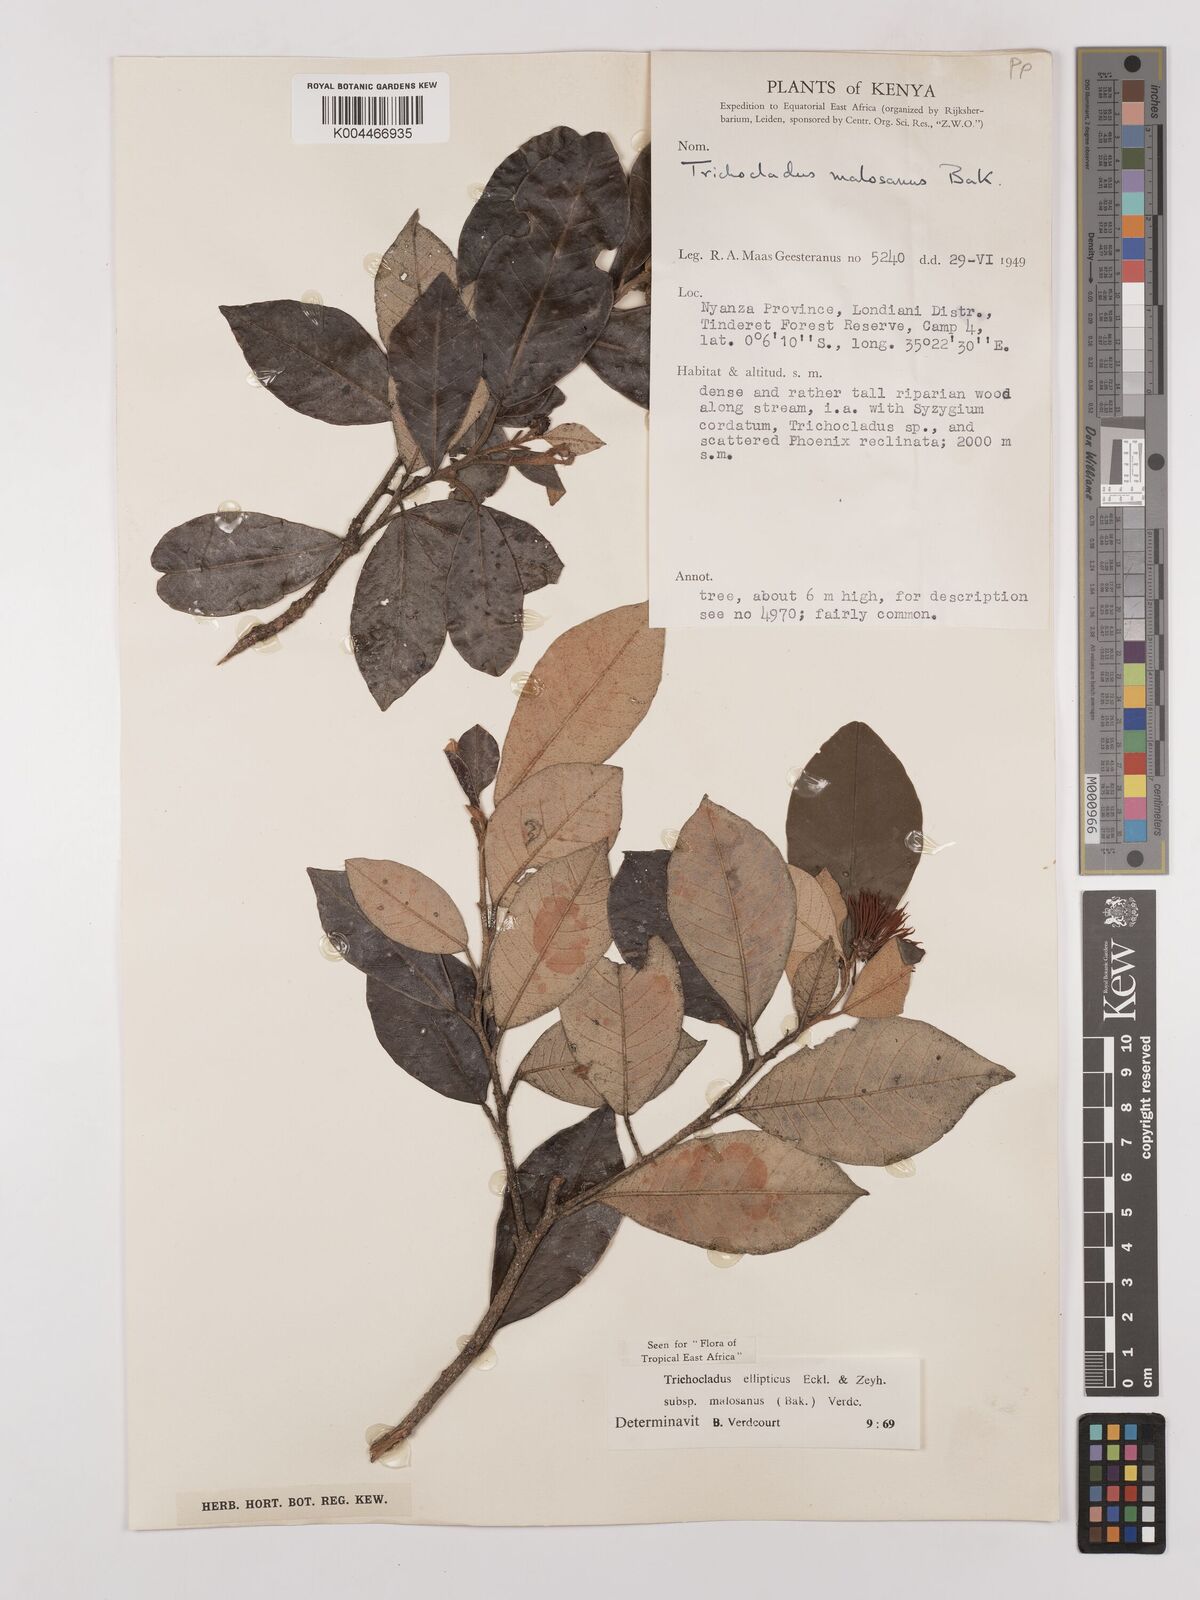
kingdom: Plantae
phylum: Tracheophyta
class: Magnoliopsida
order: Saxifragales
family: Hamamelidaceae
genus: Trichocladus
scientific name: Trichocladus ellipticus
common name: White witch-hazel
